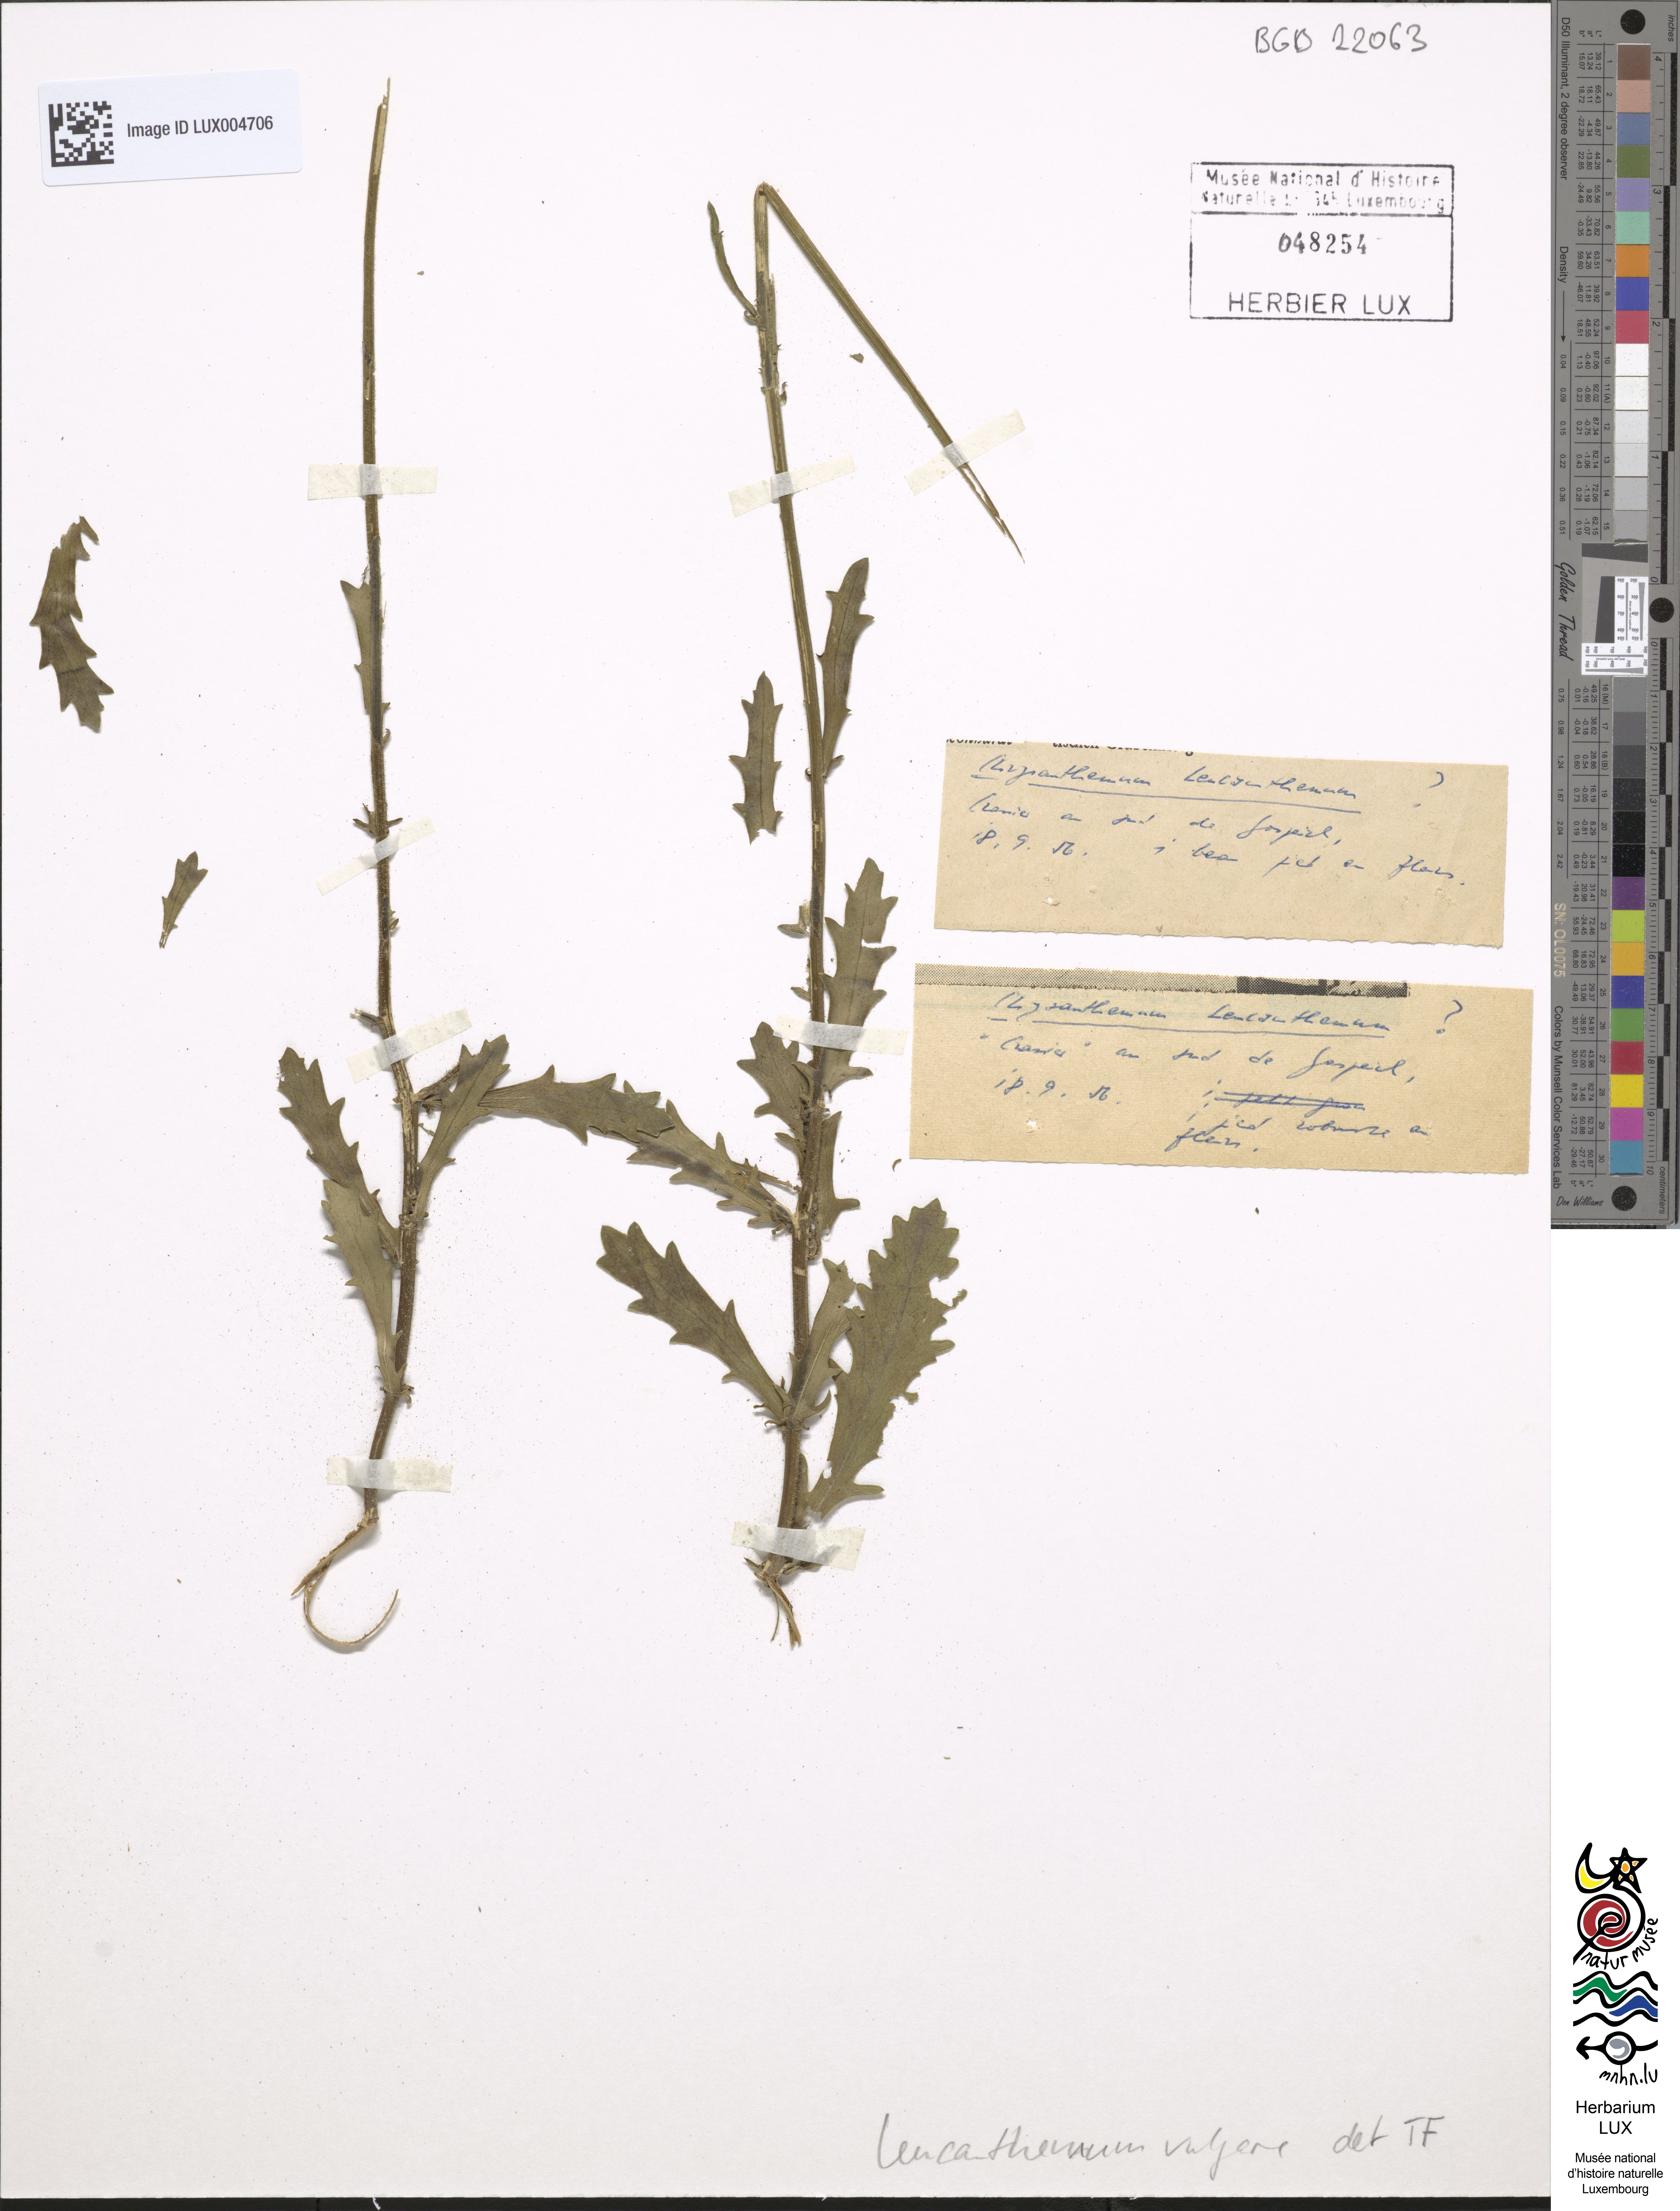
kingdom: Plantae
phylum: Tracheophyta
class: Magnoliopsida
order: Asterales
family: Asteraceae
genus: Leucanthemum
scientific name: Leucanthemum vulgare
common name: Oxeye daisy
